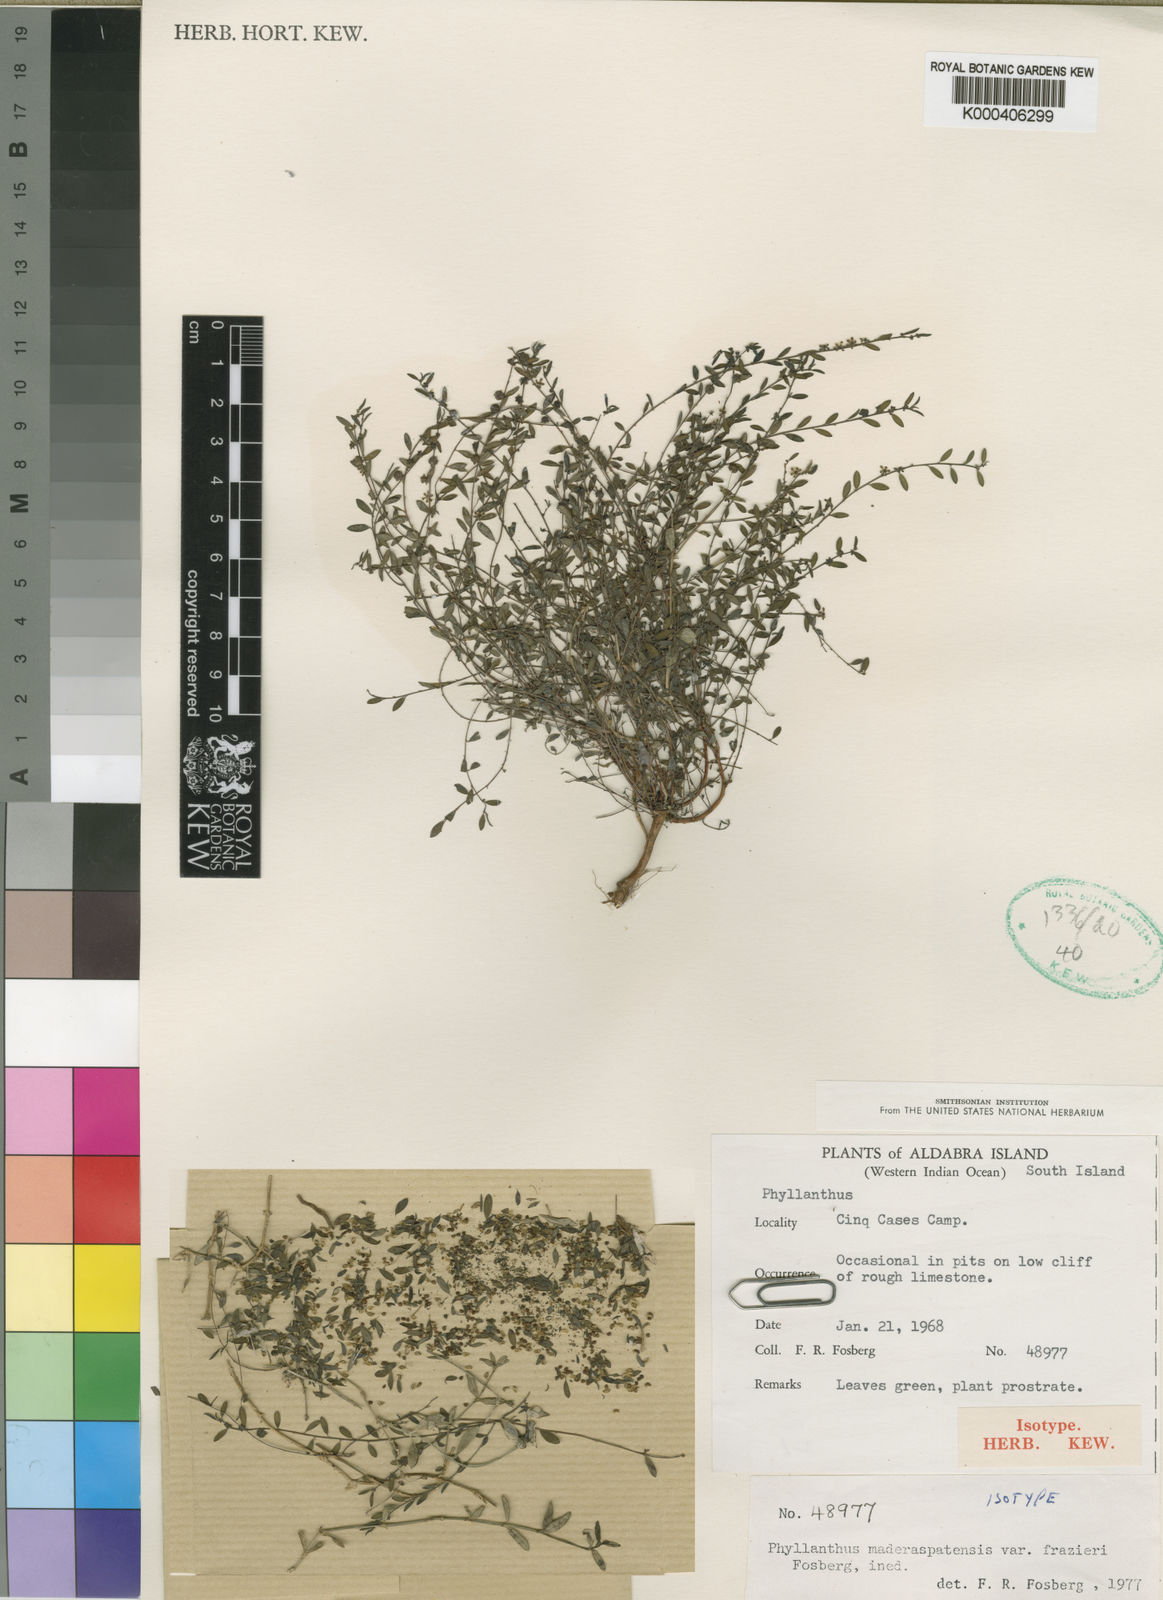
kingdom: Plantae
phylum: Tracheophyta
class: Magnoliopsida
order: Malpighiales
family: Phyllanthaceae
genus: Phyllanthus
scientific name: Phyllanthus maderaspatensis
